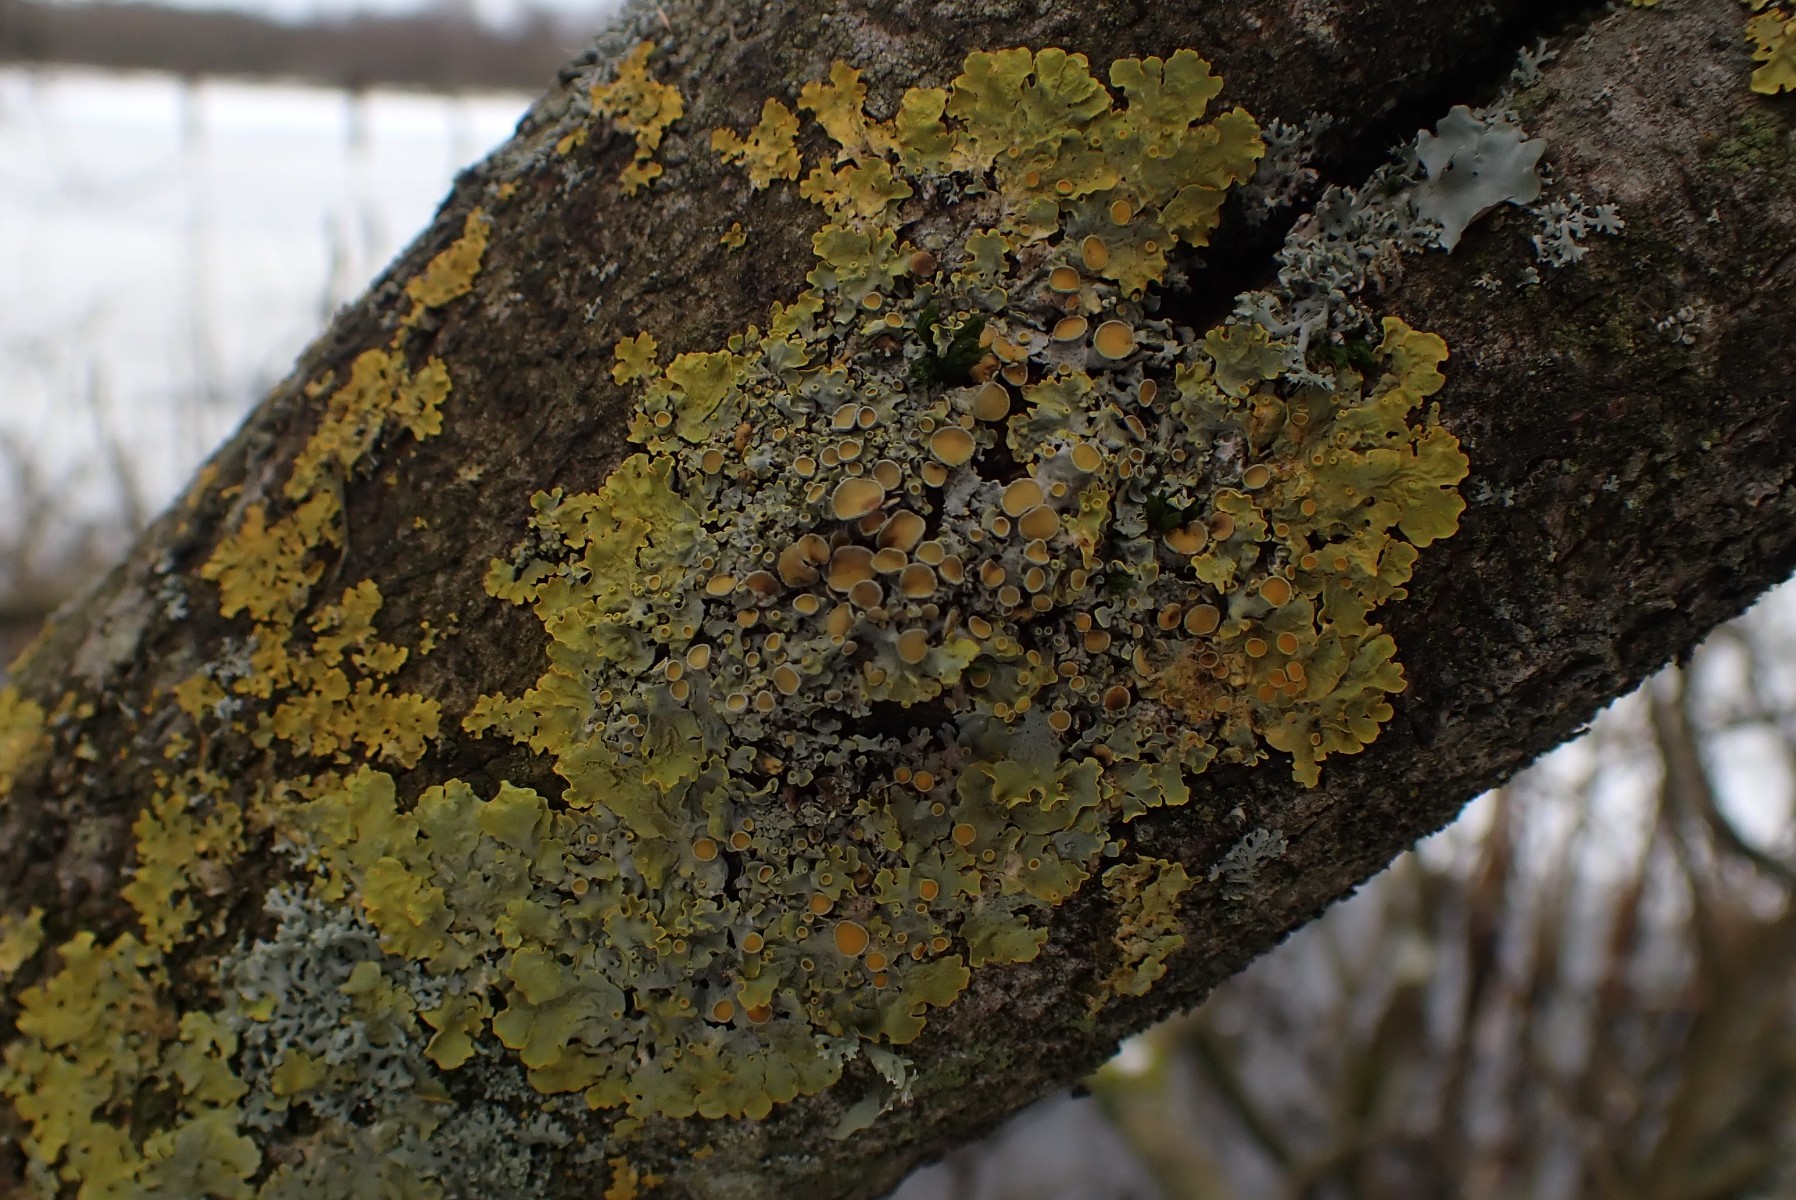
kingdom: Fungi
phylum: Ascomycota
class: Lecanoromycetes
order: Teloschistales
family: Teloschistaceae
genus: Xanthoria
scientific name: Xanthoria parietina
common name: almindelig væggelav
